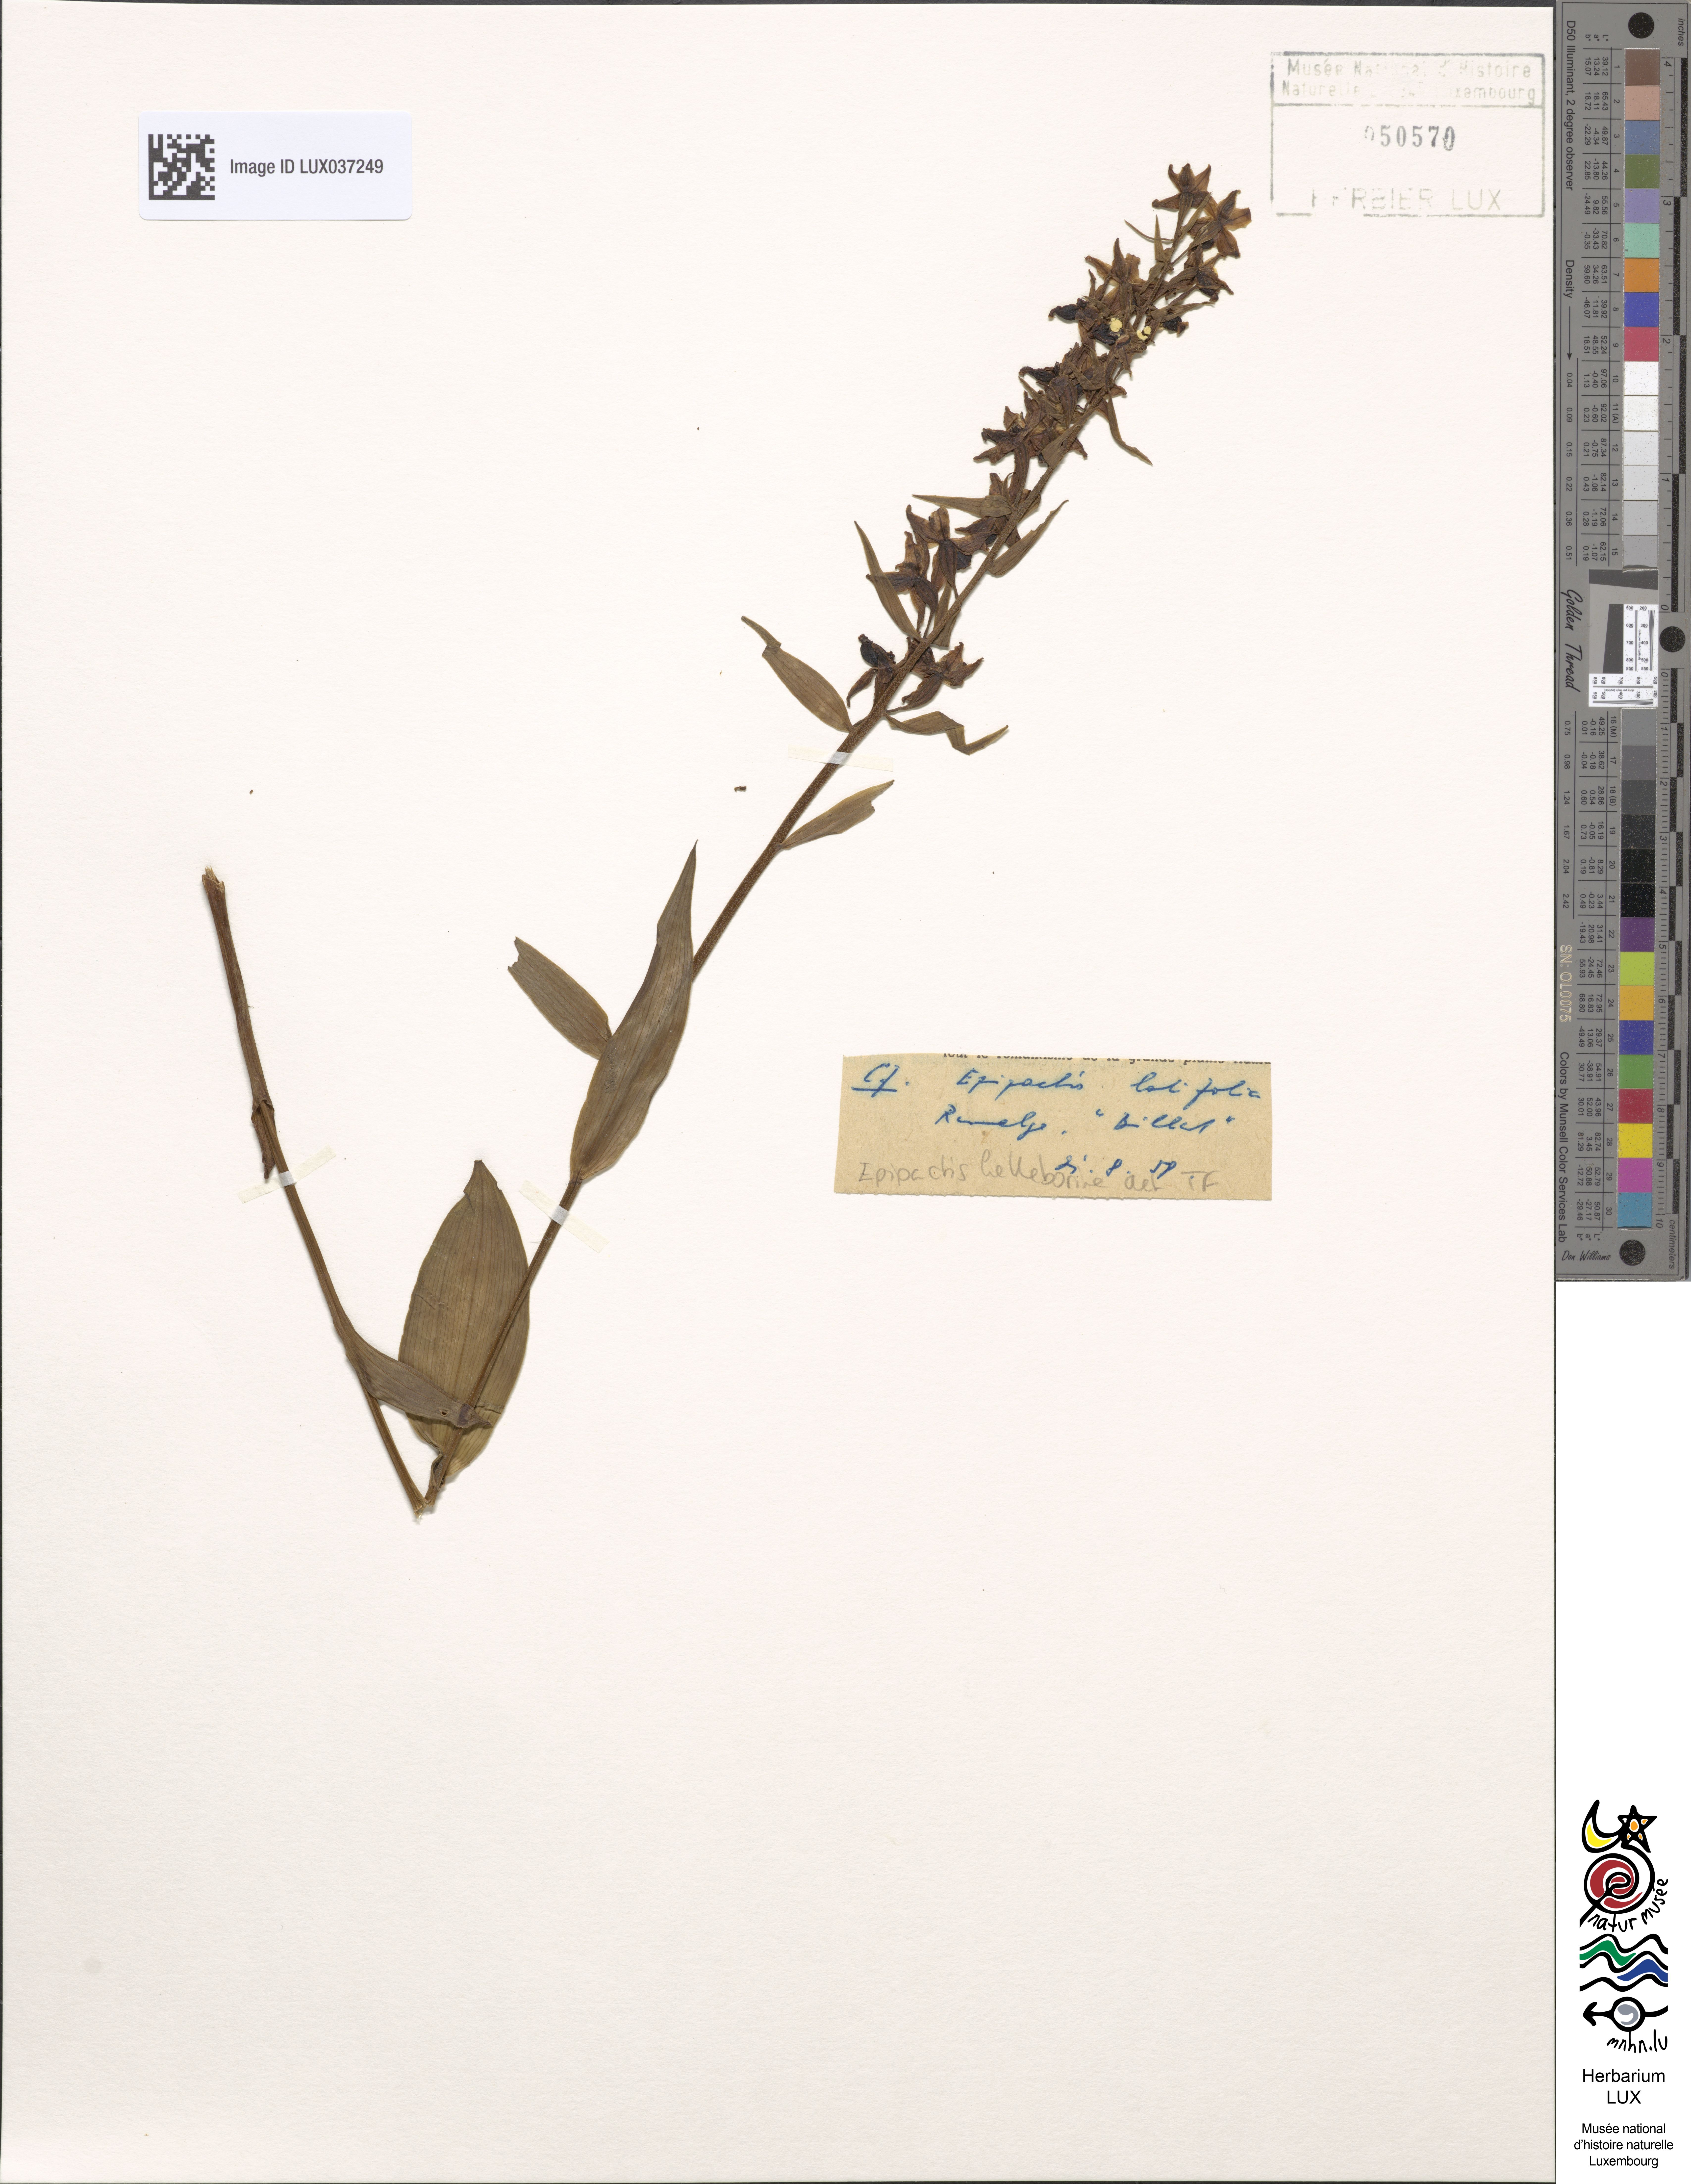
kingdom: Plantae
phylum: Tracheophyta
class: Liliopsida
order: Asparagales
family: Orchidaceae
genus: Epipactis
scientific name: Epipactis helleborine
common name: Broad-leaved helleborine
